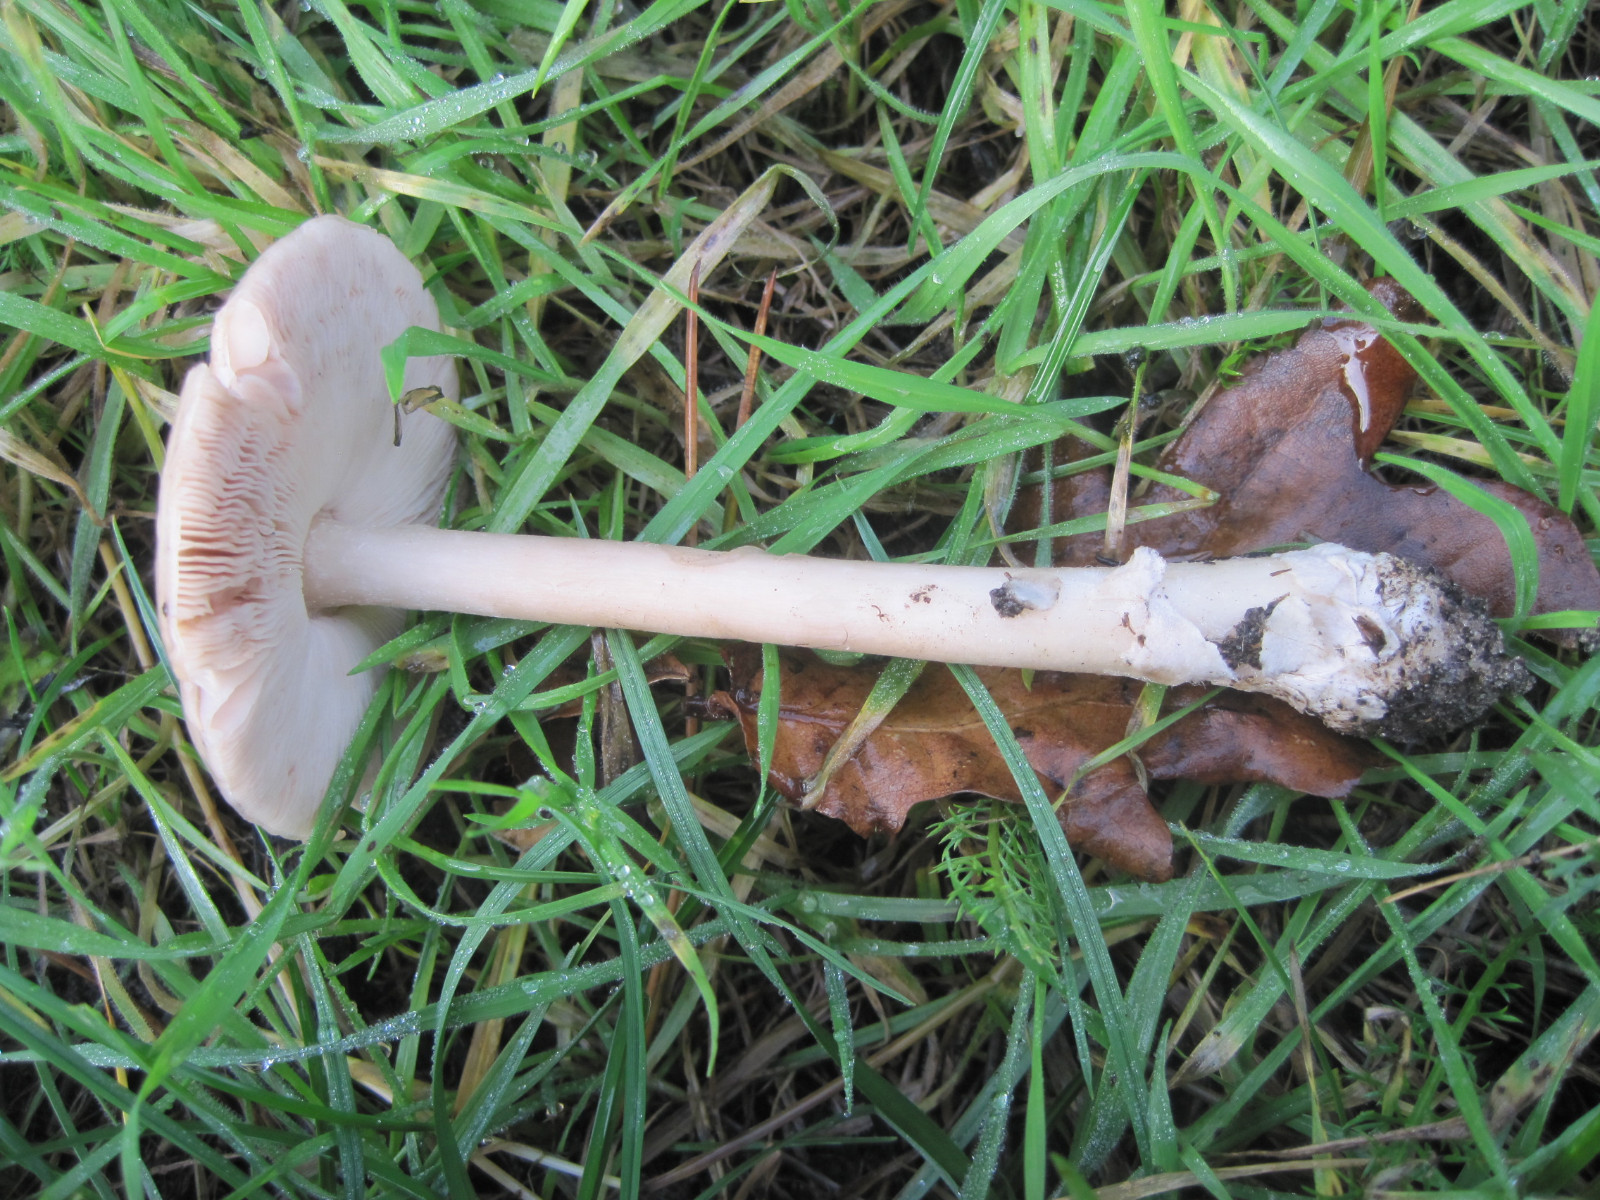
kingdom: Fungi
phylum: Basidiomycota
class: Agaricomycetes
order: Agaricales
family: Pluteaceae
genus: Volvopluteus
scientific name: Volvopluteus gloiocephalus
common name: høj posesvamp
